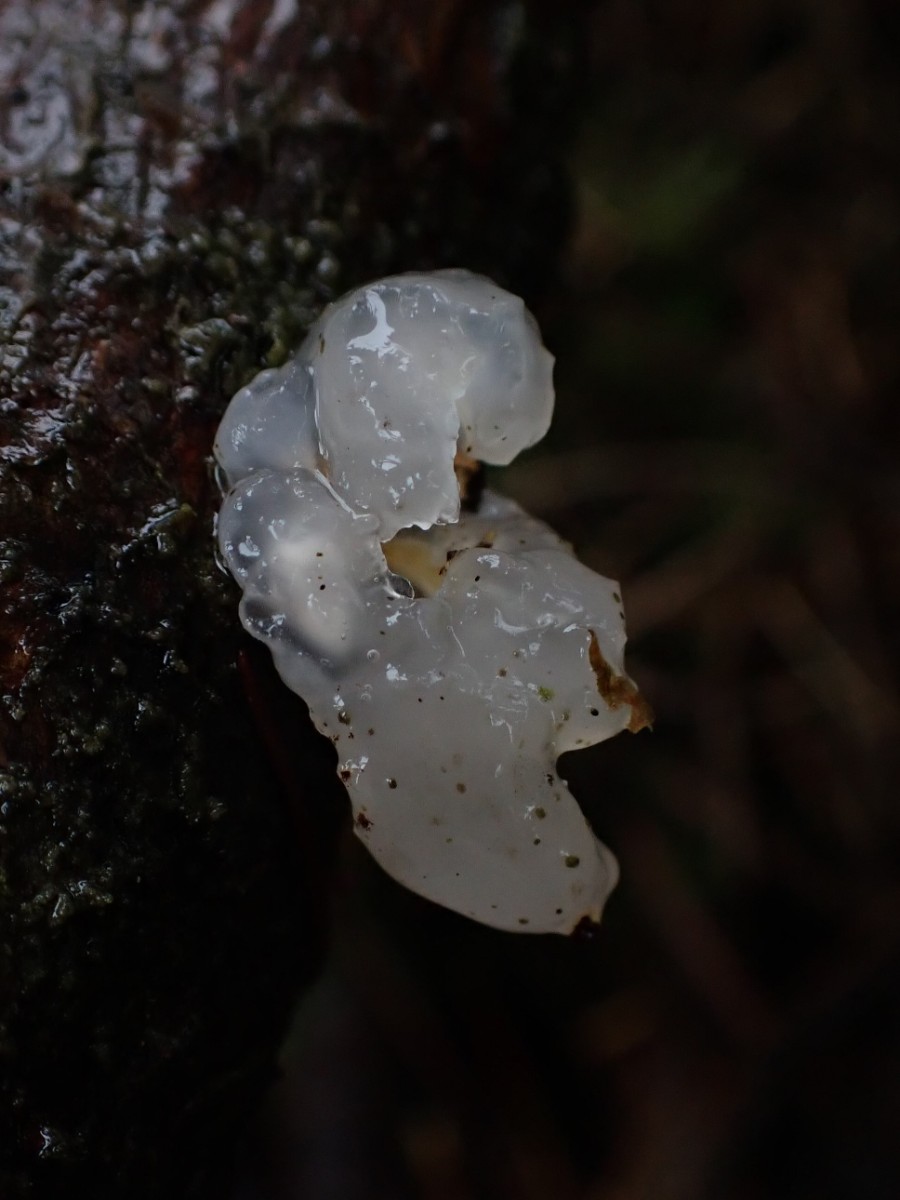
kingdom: Fungi
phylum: Basidiomycota
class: Agaricomycetes
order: Auriculariales
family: Hyaloriaceae
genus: Myxarium
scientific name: Myxarium nucleatum
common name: klar bævretop
